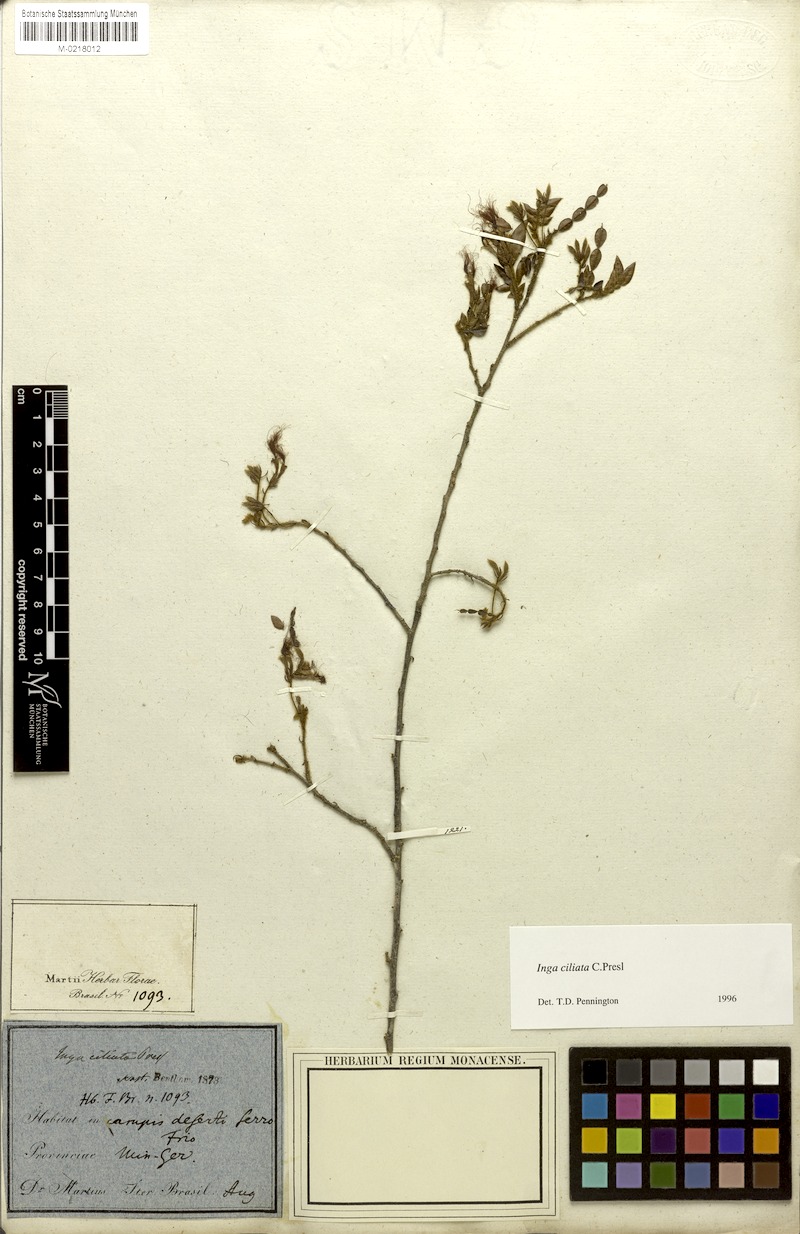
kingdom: Plantae
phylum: Tracheophyta
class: Magnoliopsida
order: Fabales
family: Fabaceae
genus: Inga
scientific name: Inga ciliata
